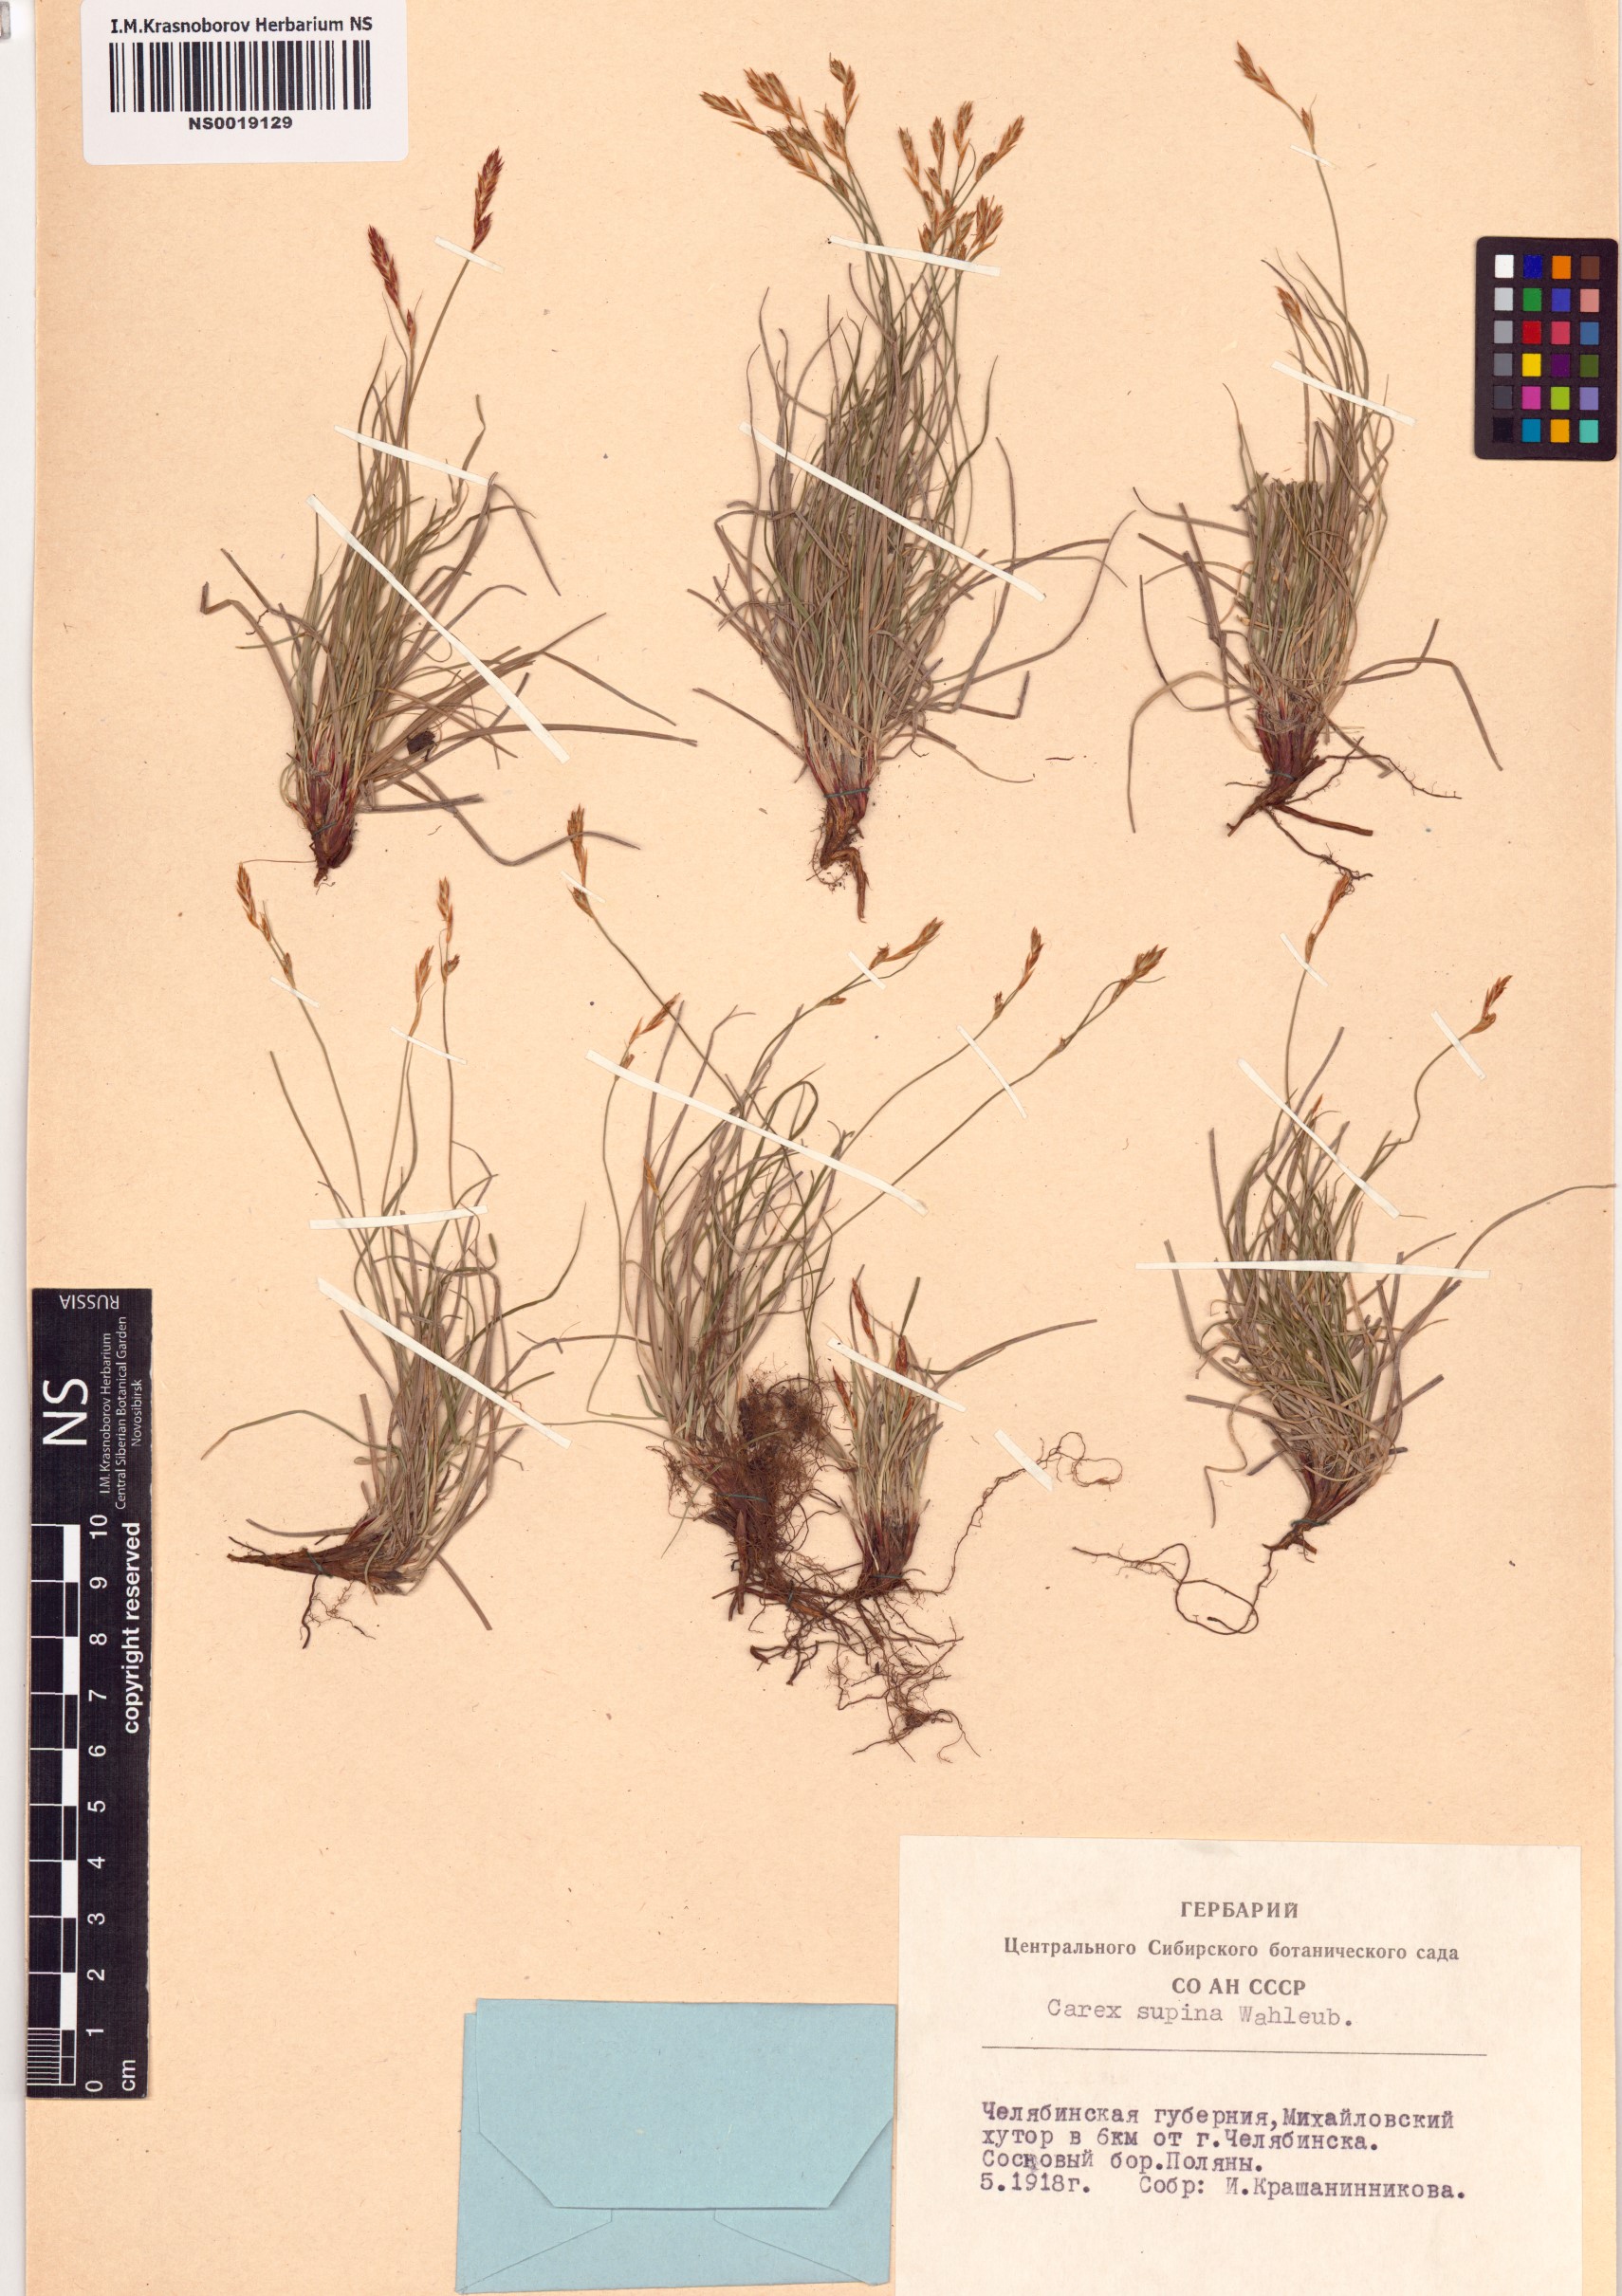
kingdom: Plantae
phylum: Tracheophyta
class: Liliopsida
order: Poales
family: Cyperaceae
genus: Carex
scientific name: Carex supina
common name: Lying-back sedge
